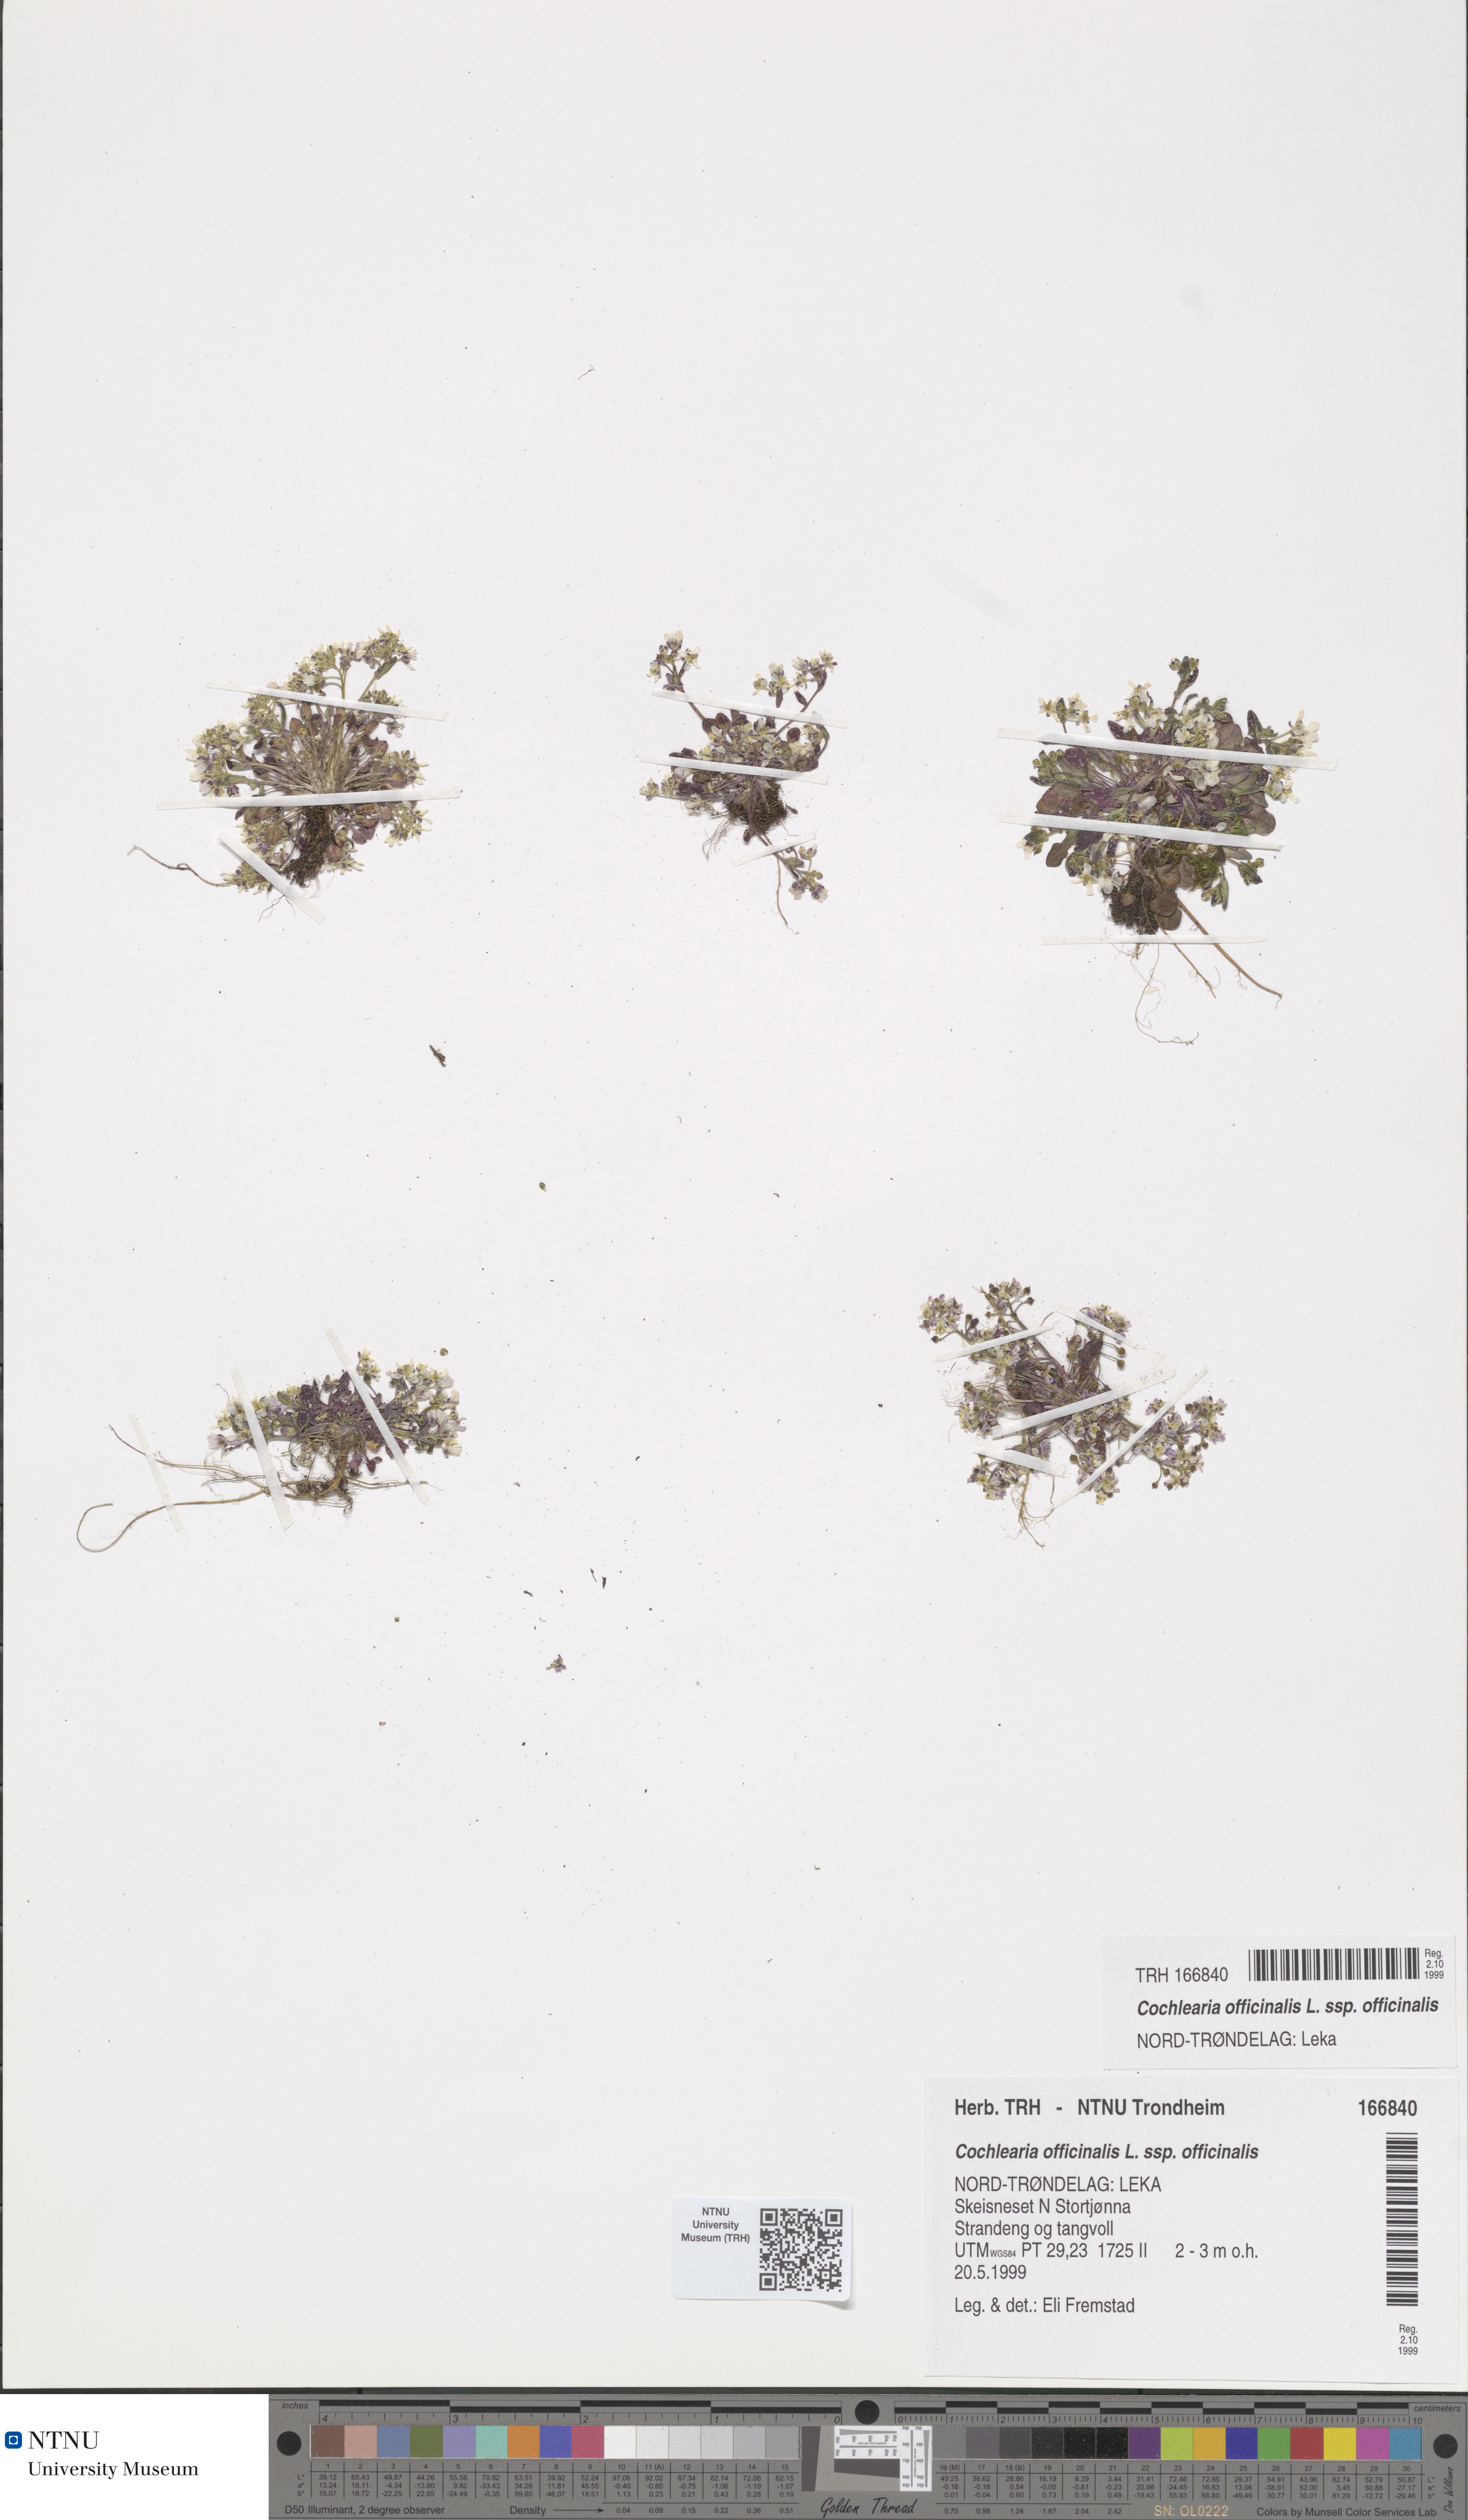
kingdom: Plantae
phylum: Tracheophyta
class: Magnoliopsida
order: Brassicales
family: Brassicaceae
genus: Cochlearia
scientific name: Cochlearia officinalis
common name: Scurvy-grass
